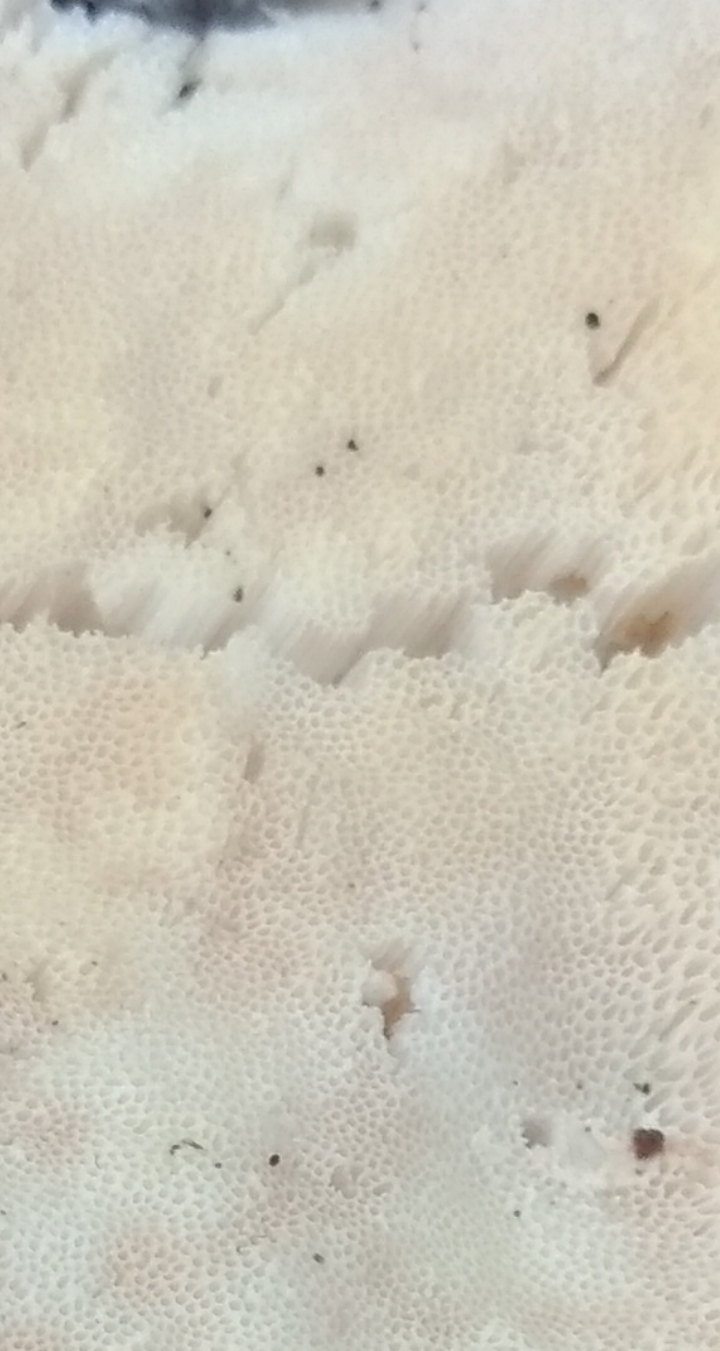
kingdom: Fungi
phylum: Basidiomycota
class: Agaricomycetes
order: Polyporales
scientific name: Polyporales
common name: poresvampordenen
